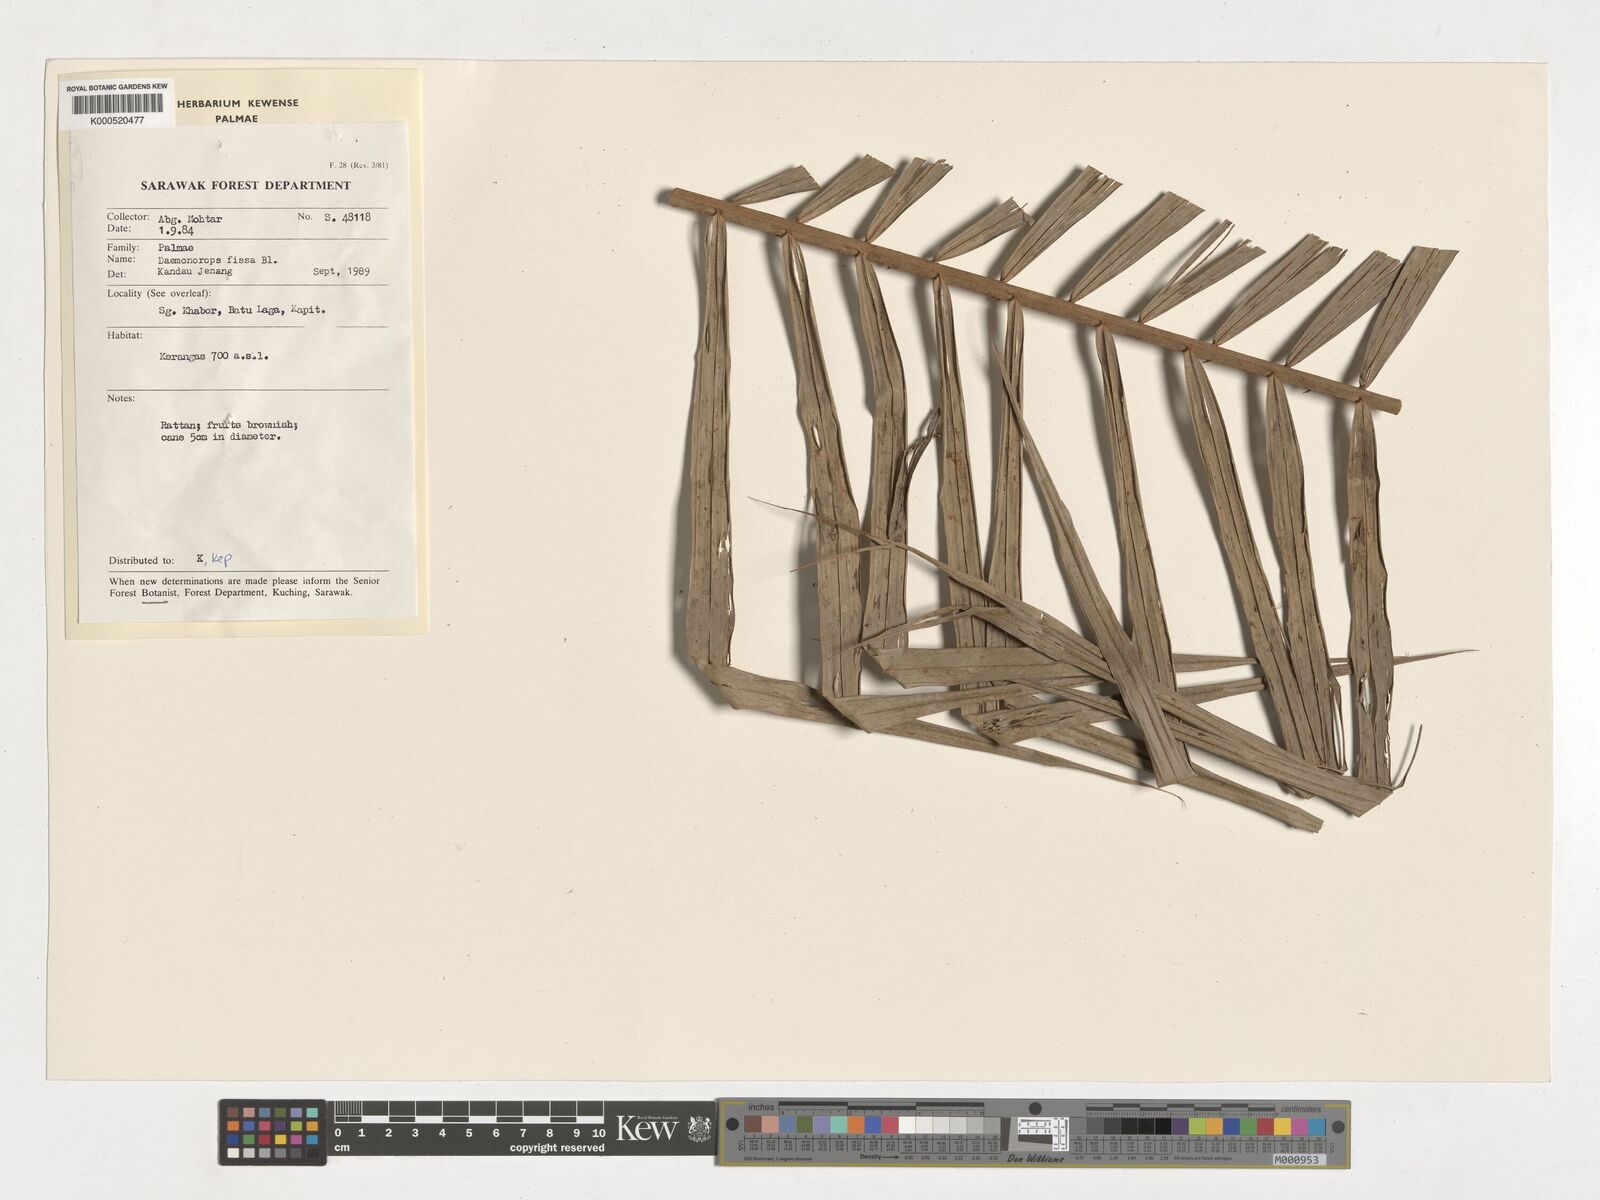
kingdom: Plantae
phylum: Tracheophyta
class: Liliopsida
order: Arecales
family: Arecaceae
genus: Calamus
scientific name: Calamus melanochaetes
